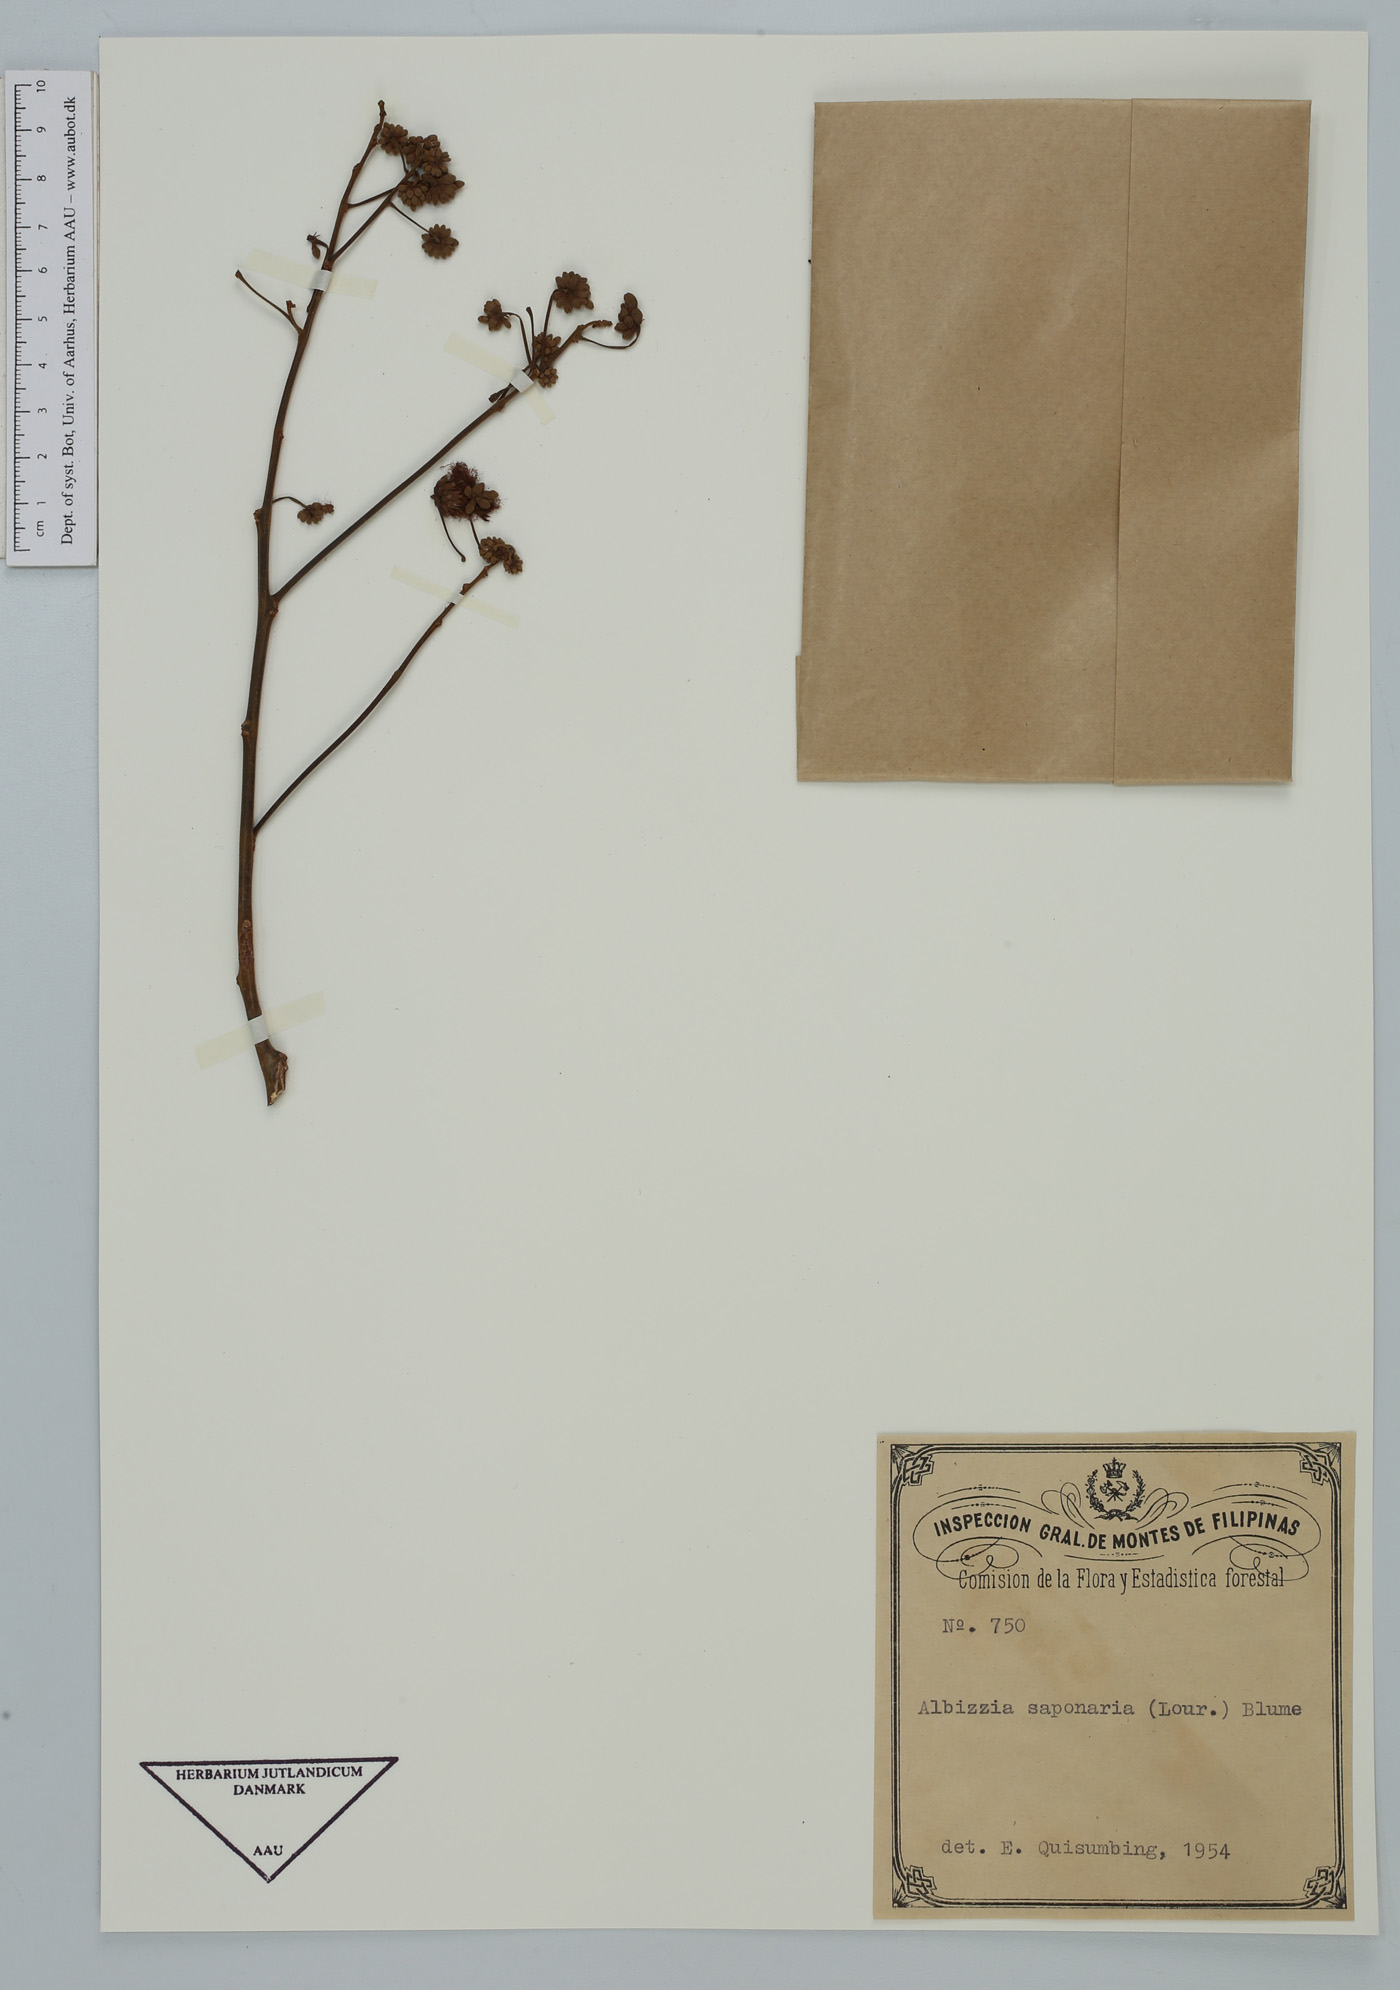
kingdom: Plantae
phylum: Tracheophyta
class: Magnoliopsida
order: Fabales
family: Fabaceae
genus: Albizia
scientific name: Albizia saponaria
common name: Whiteflower albizia
